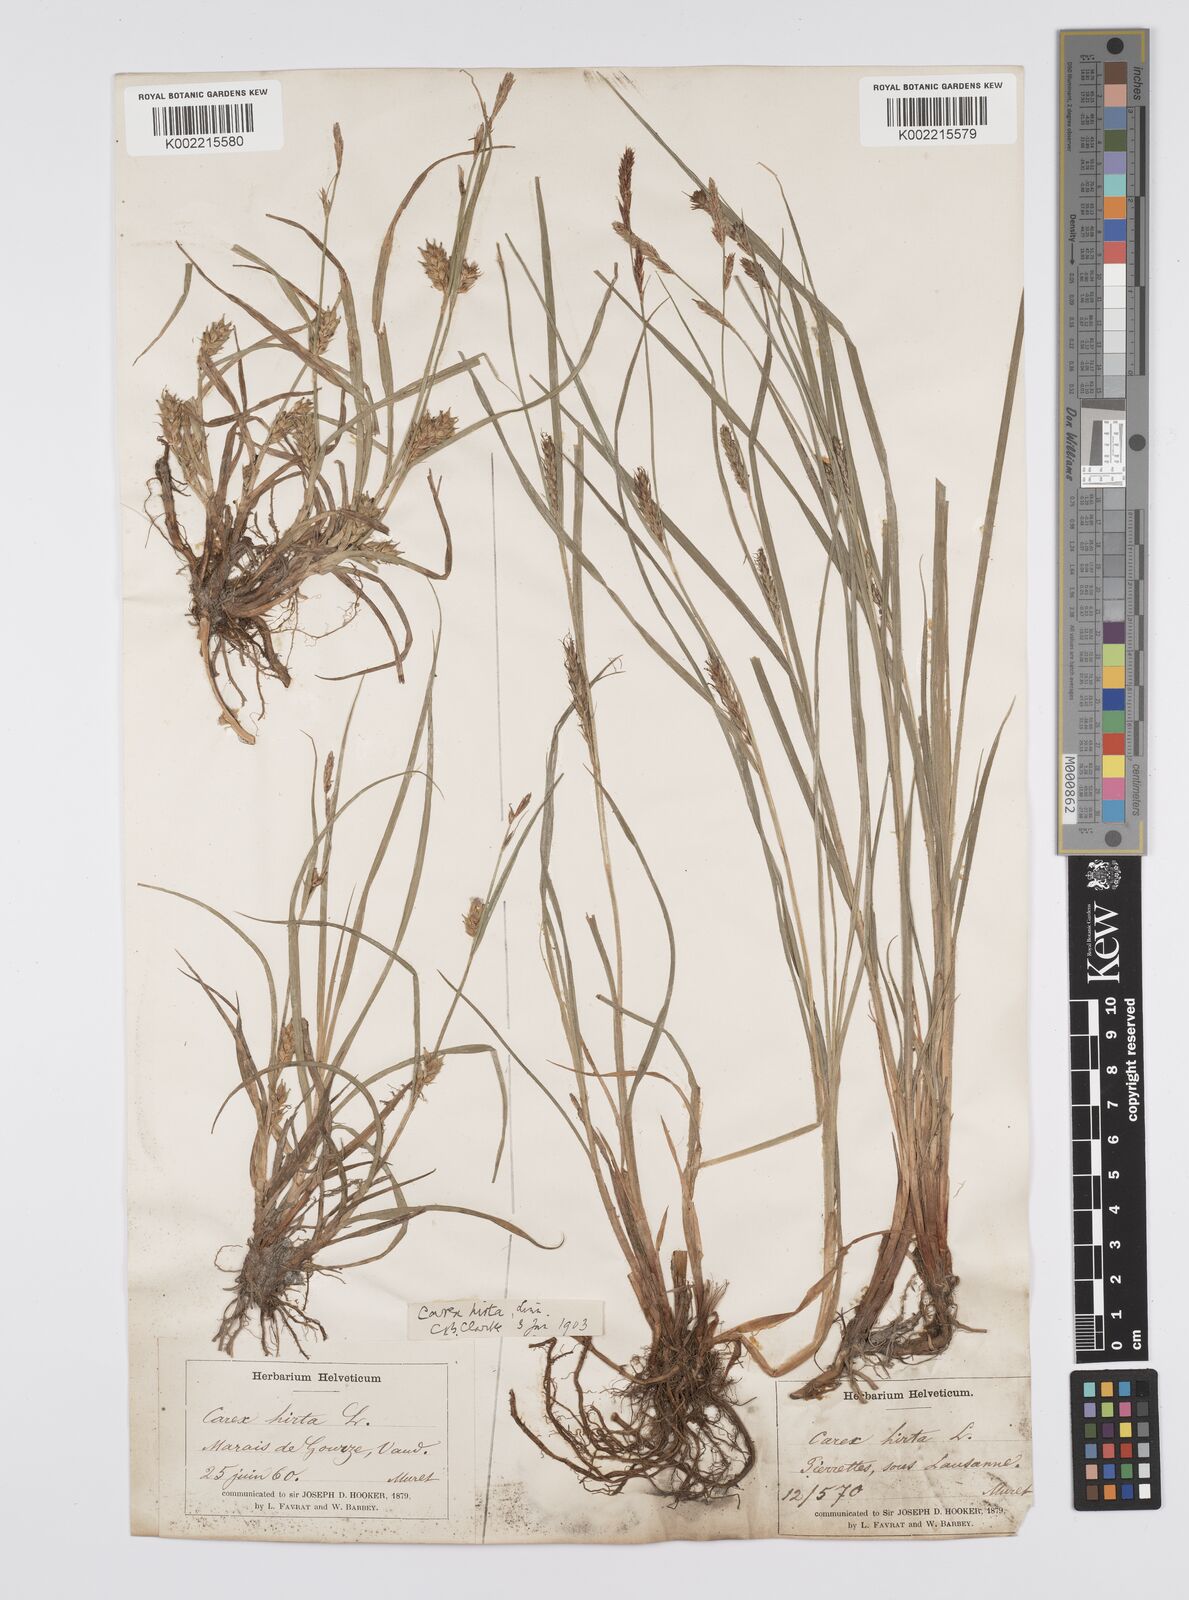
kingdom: Plantae
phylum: Tracheophyta
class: Liliopsida
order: Poales
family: Cyperaceae
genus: Carex
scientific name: Carex hirta
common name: Hairy sedge
